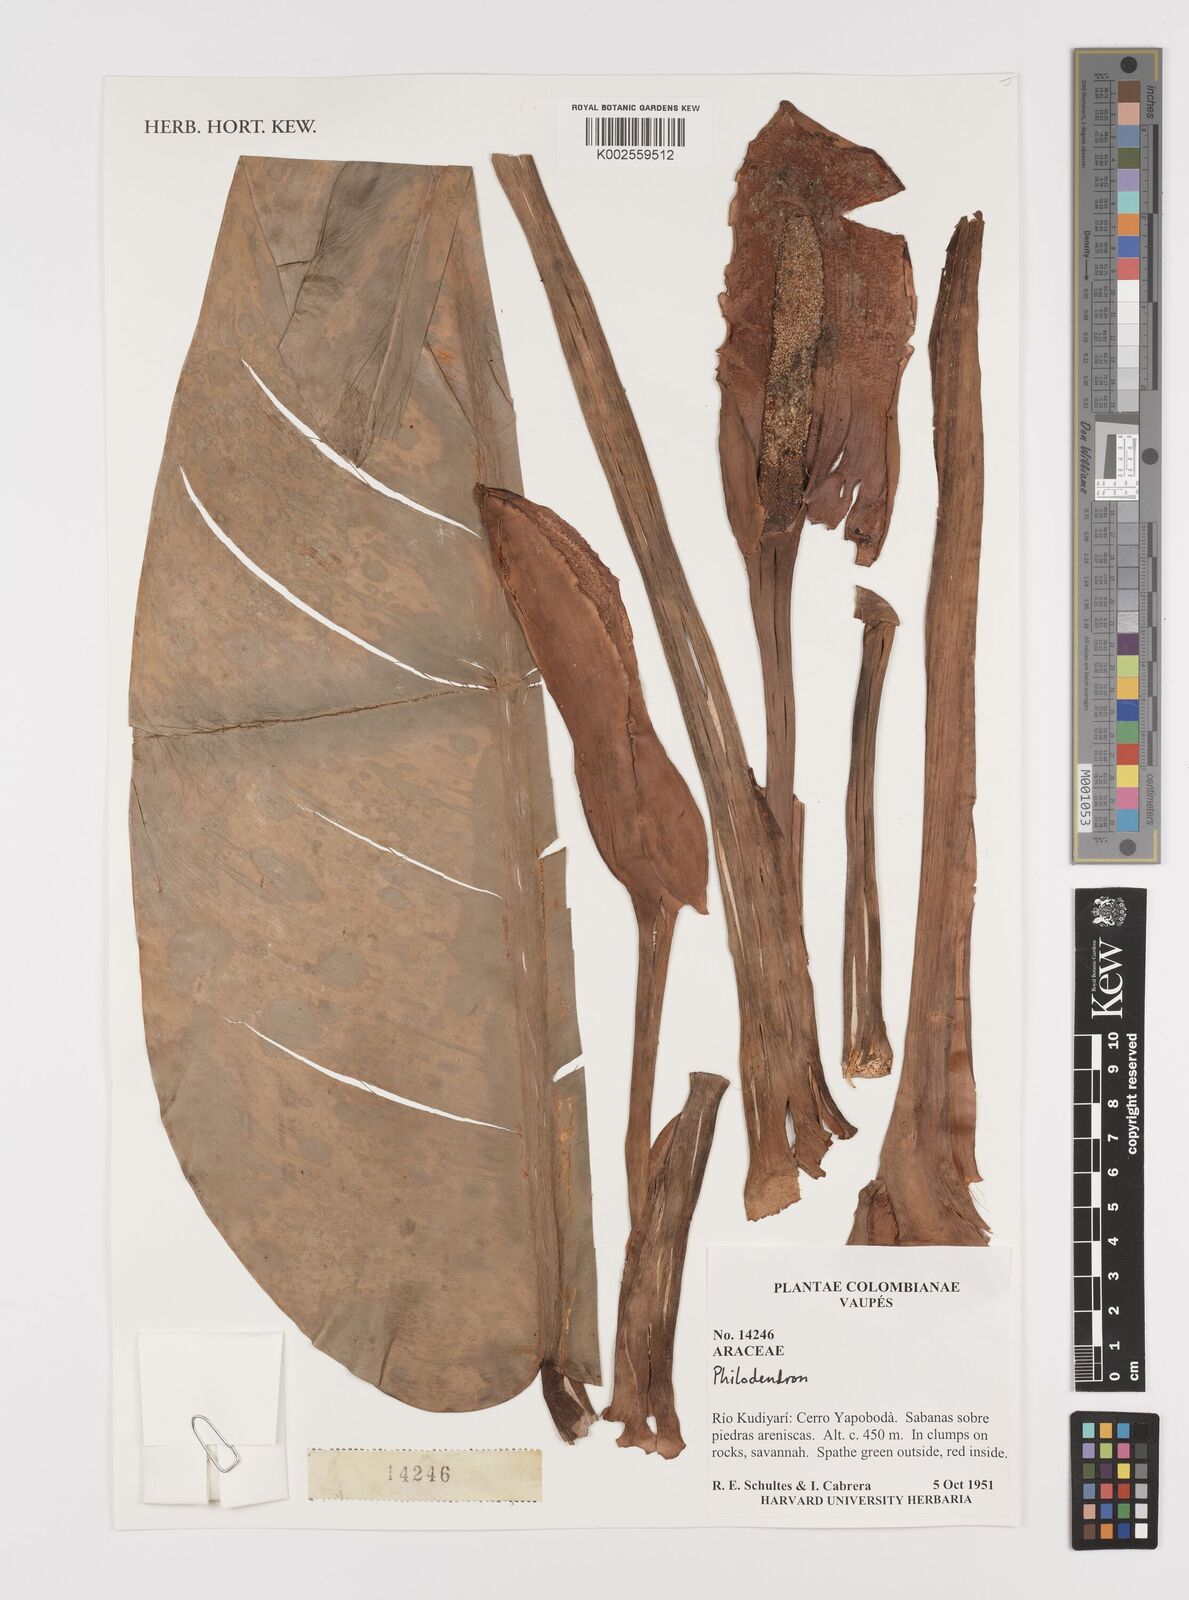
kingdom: Plantae
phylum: Tracheophyta
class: Liliopsida
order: Alismatales
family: Araceae
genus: Philodendron
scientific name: Philodendron
